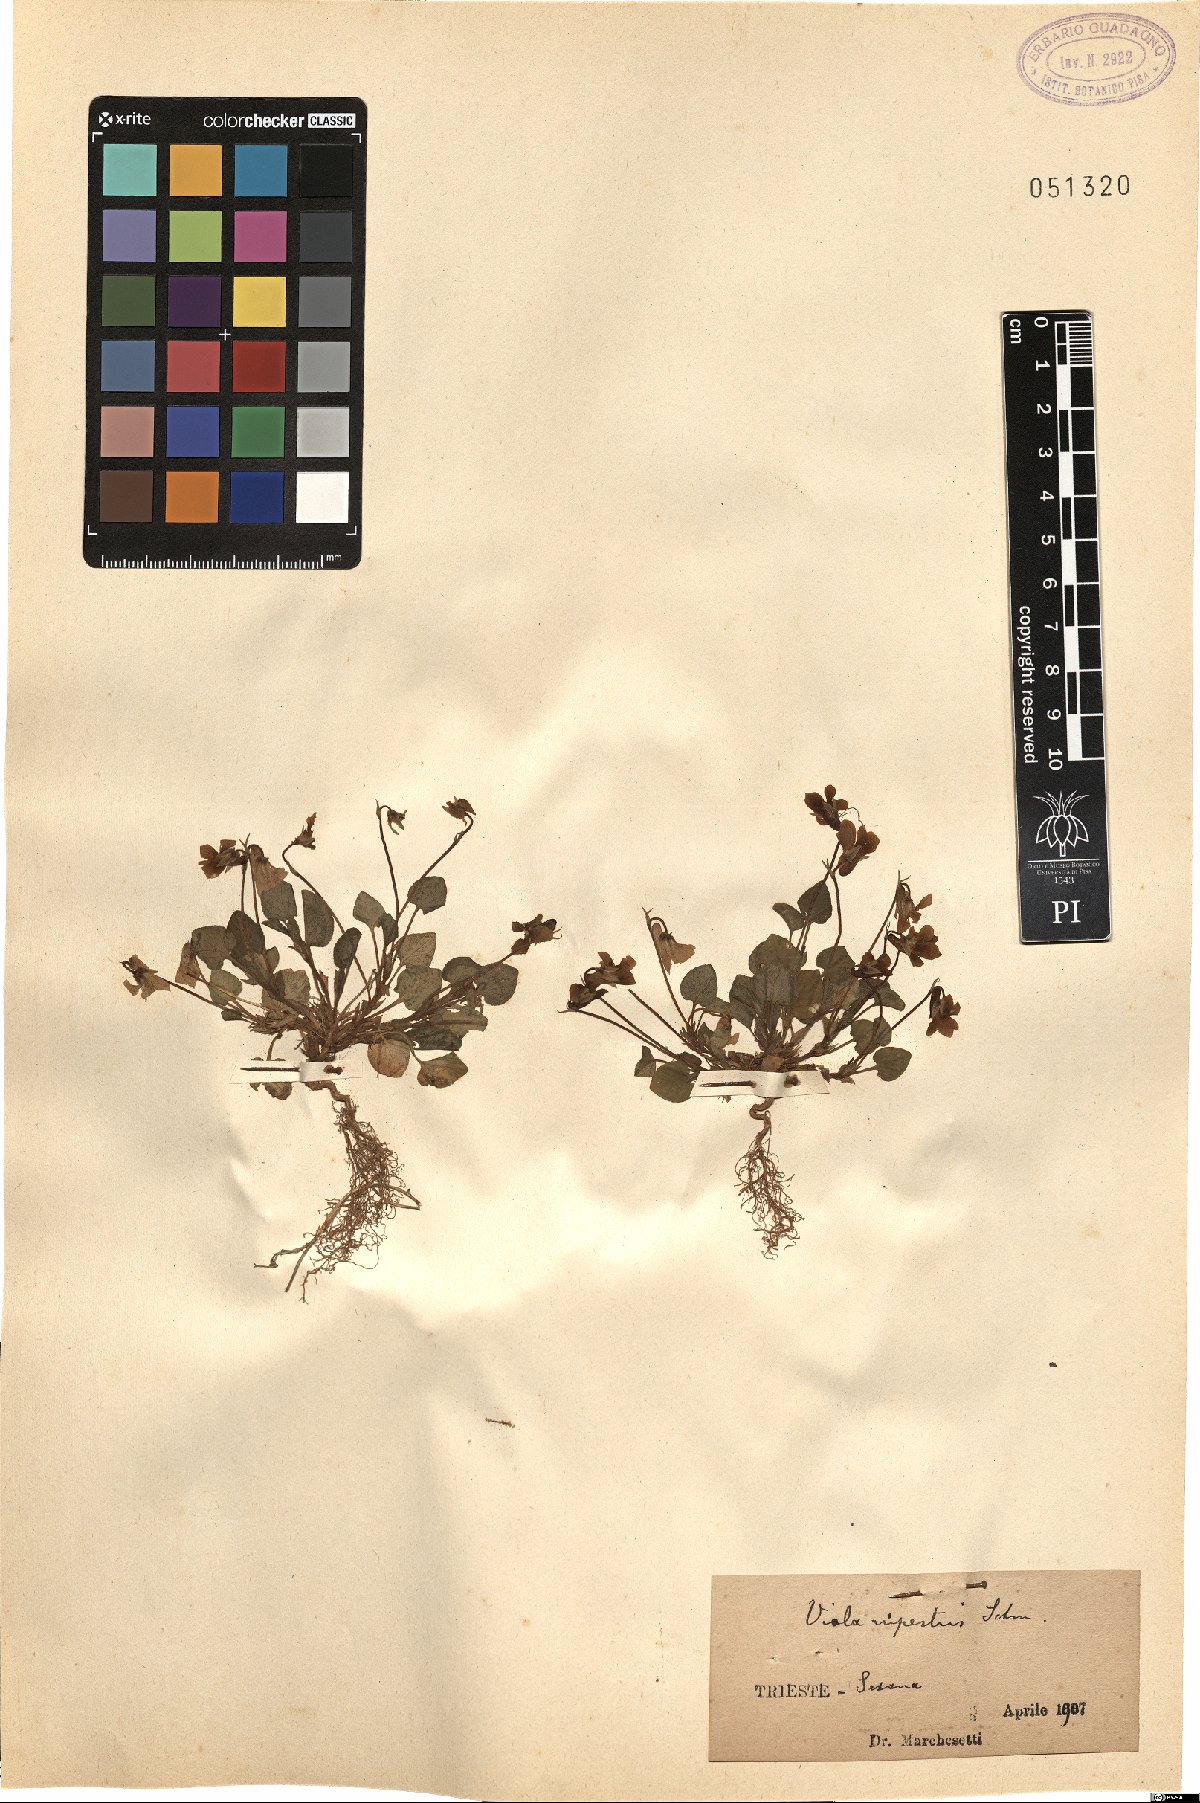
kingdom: Plantae
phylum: Tracheophyta
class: Magnoliopsida
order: Malpighiales
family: Violaceae
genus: Viola
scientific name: Viola rupestris
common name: Teesdale violet
